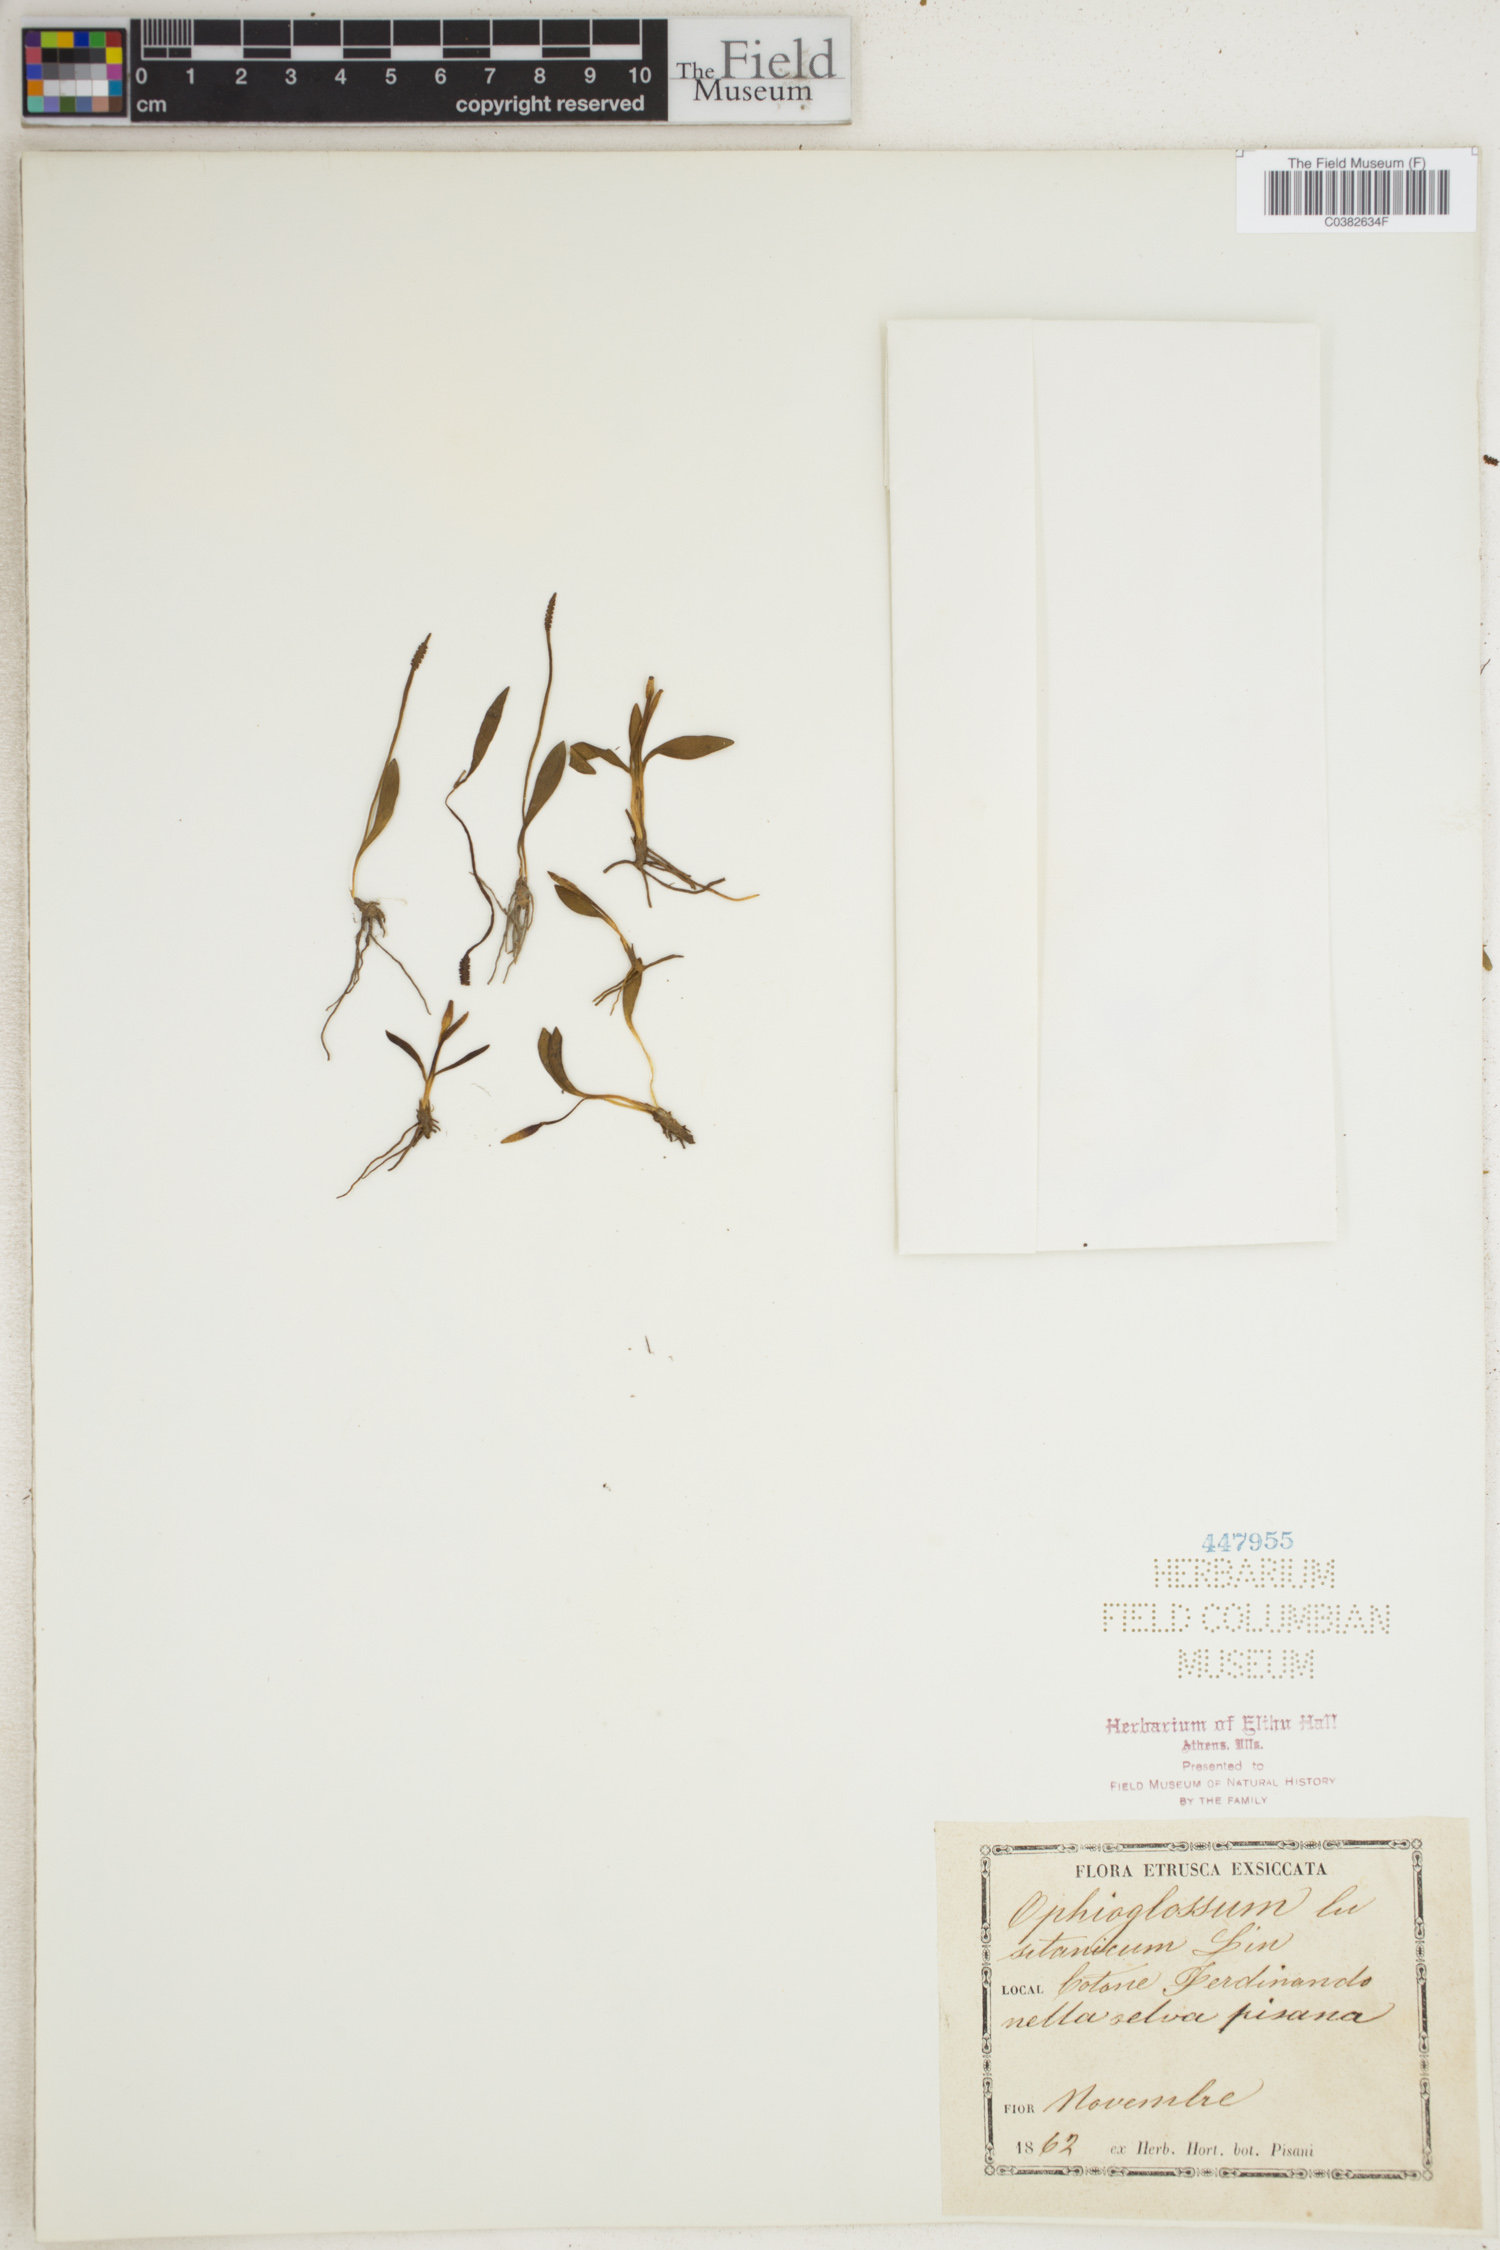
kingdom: Plantae
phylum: Tracheophyta
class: Polypodiopsida
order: Ophioglossales
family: Ophioglossaceae
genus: Ophioglossum
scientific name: Ophioglossum lusitanicum
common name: Least adder's-tongue
